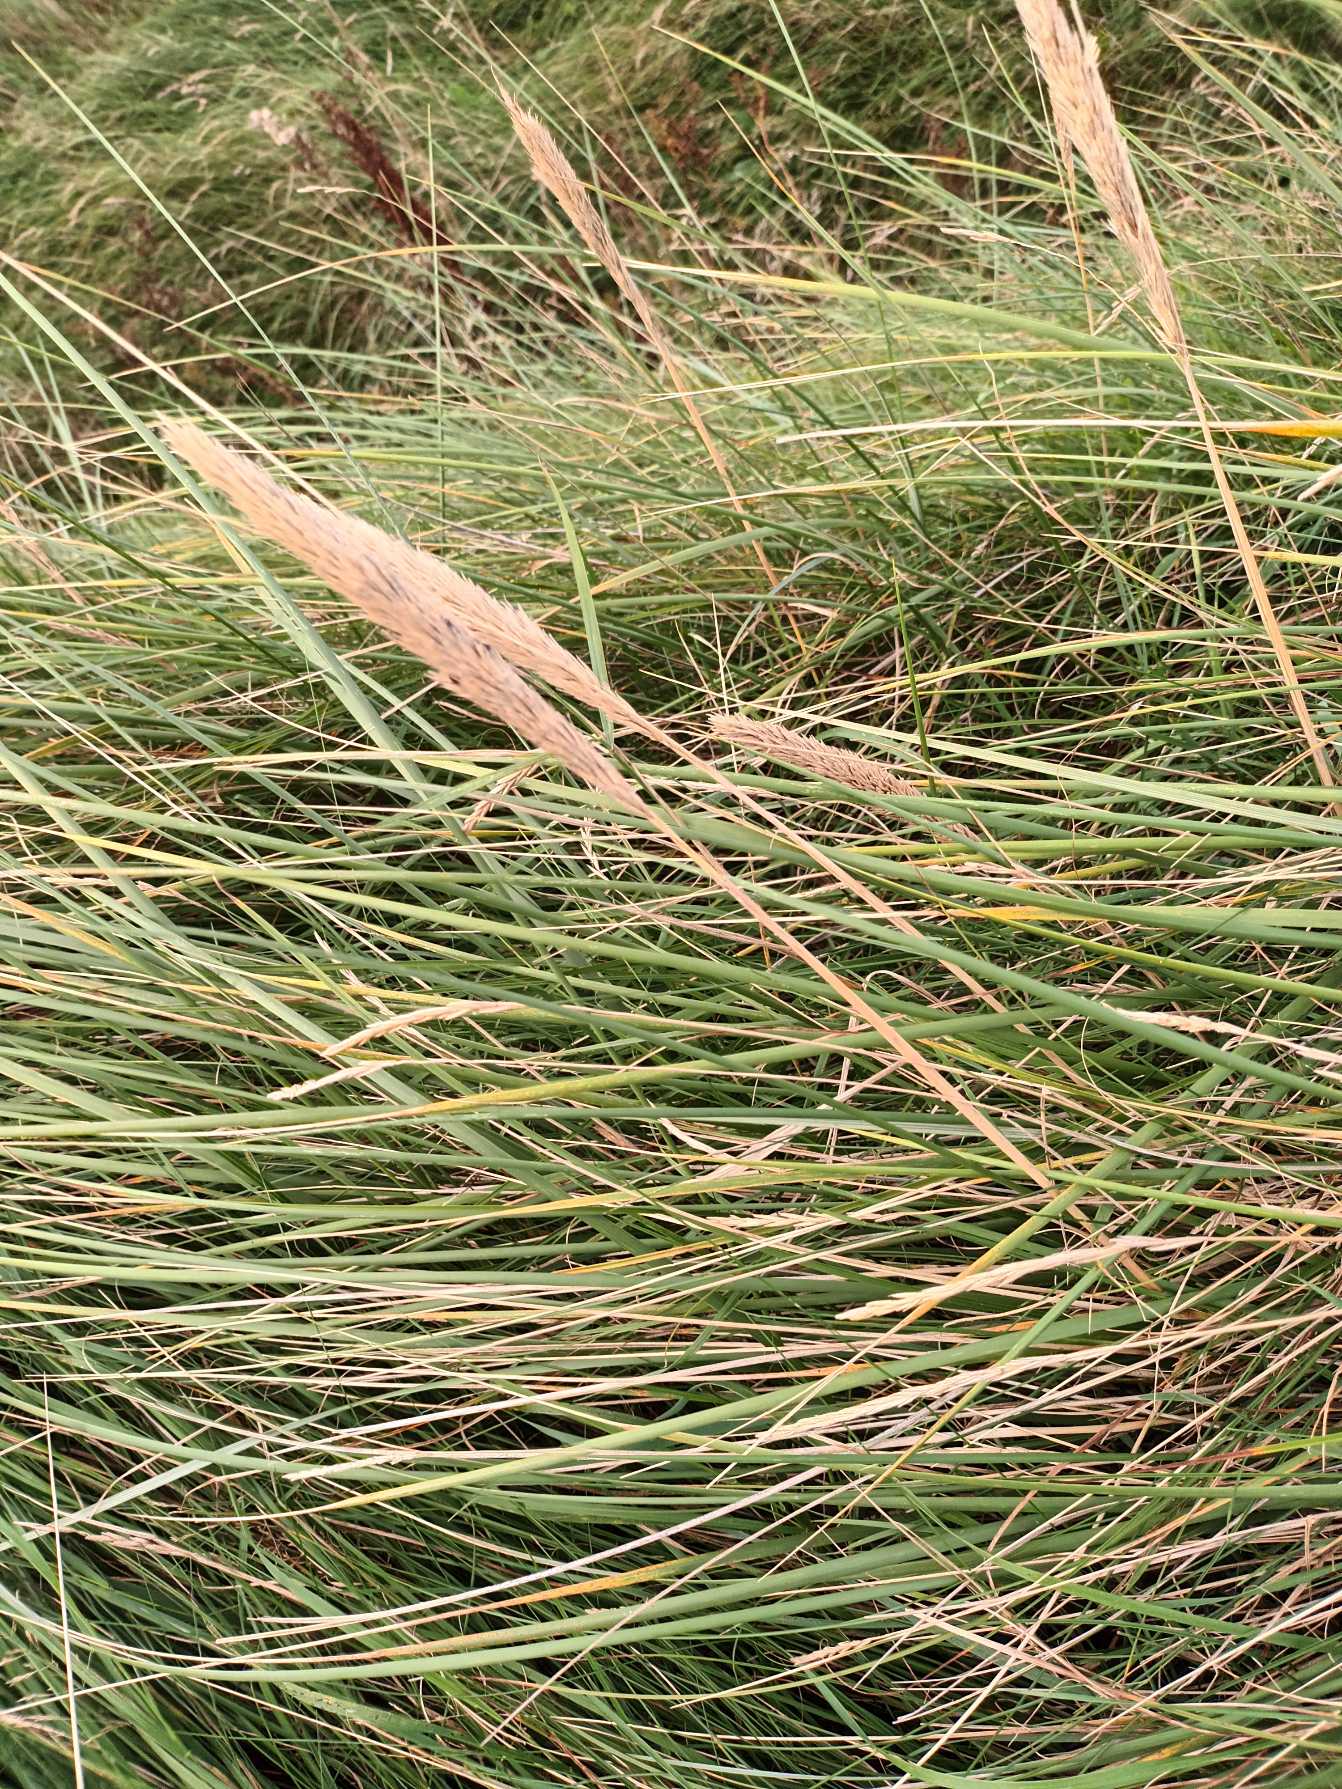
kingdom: Plantae
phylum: Tracheophyta
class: Liliopsida
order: Poales
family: Poaceae
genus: Calamagrostis
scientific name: Calamagrostis arenaria
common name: Sand-hjælme
